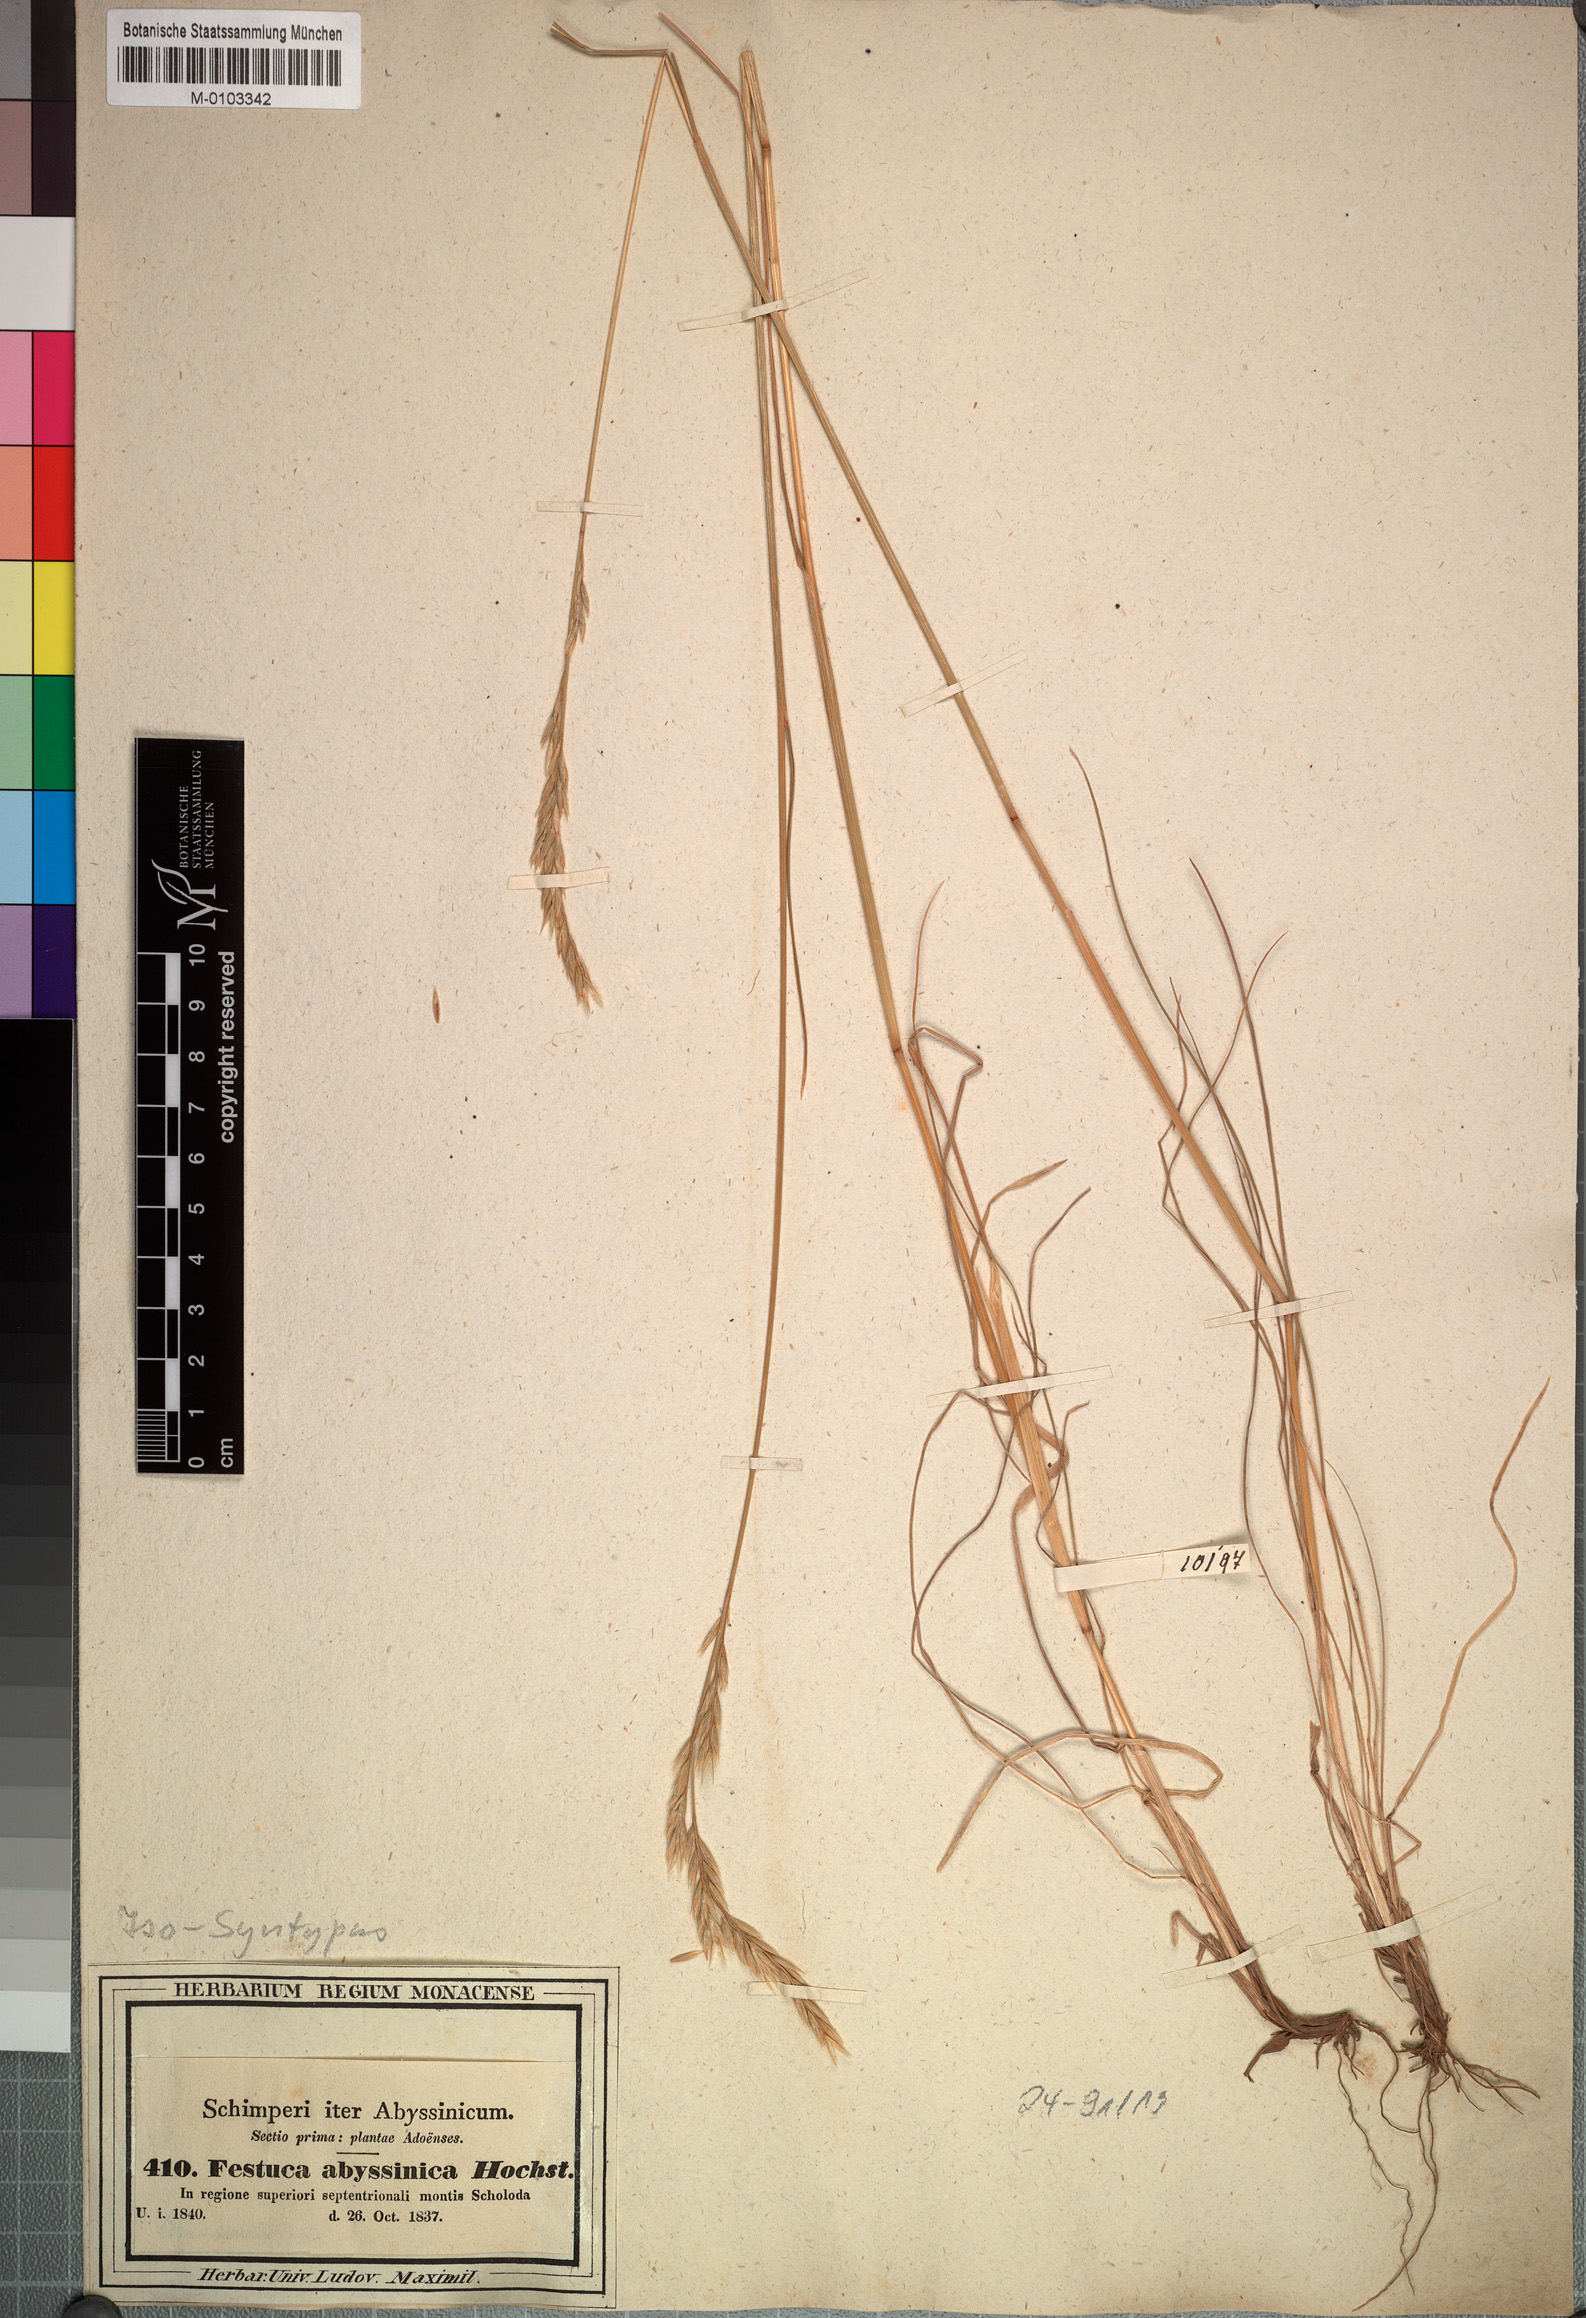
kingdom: Plantae
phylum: Tracheophyta
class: Liliopsida
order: Poales
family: Poaceae
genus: Festuca
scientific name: Festuca abyssinica
